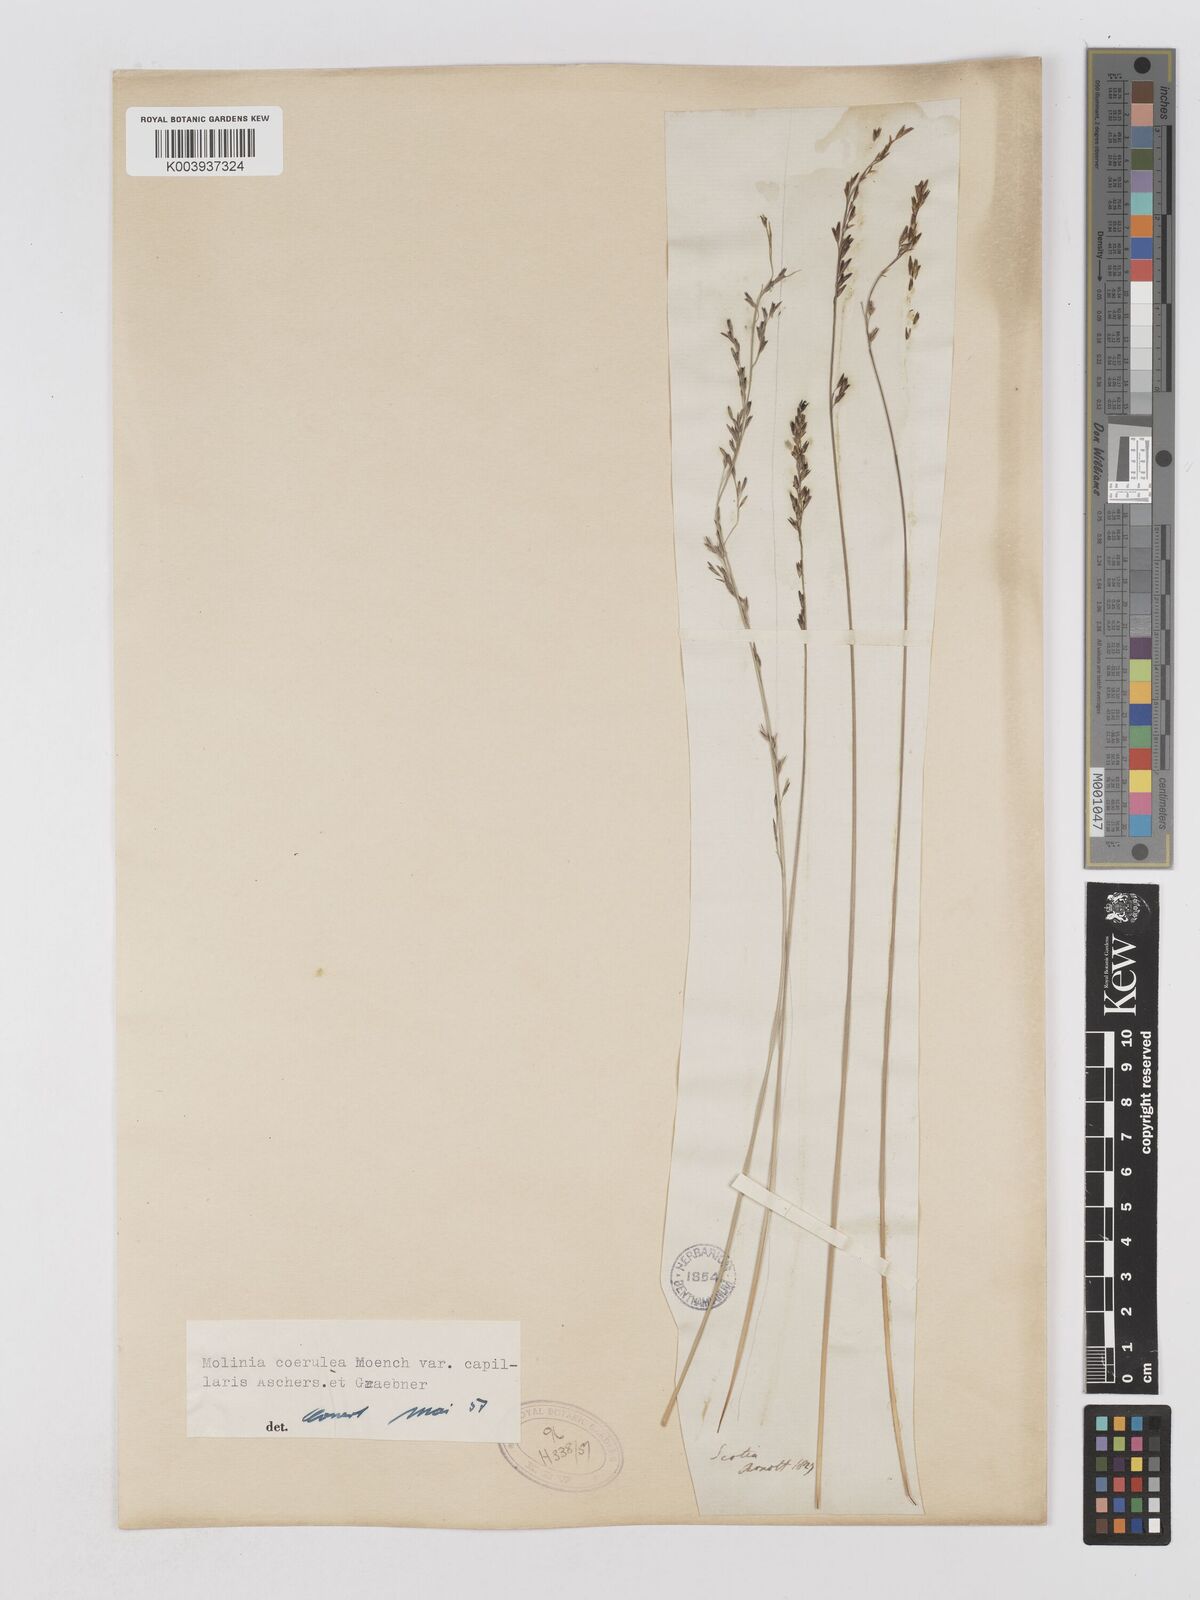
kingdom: Plantae
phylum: Tracheophyta
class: Liliopsida
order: Poales
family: Poaceae
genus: Molinia
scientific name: Molinia caerulea
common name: Purple moor-grass
